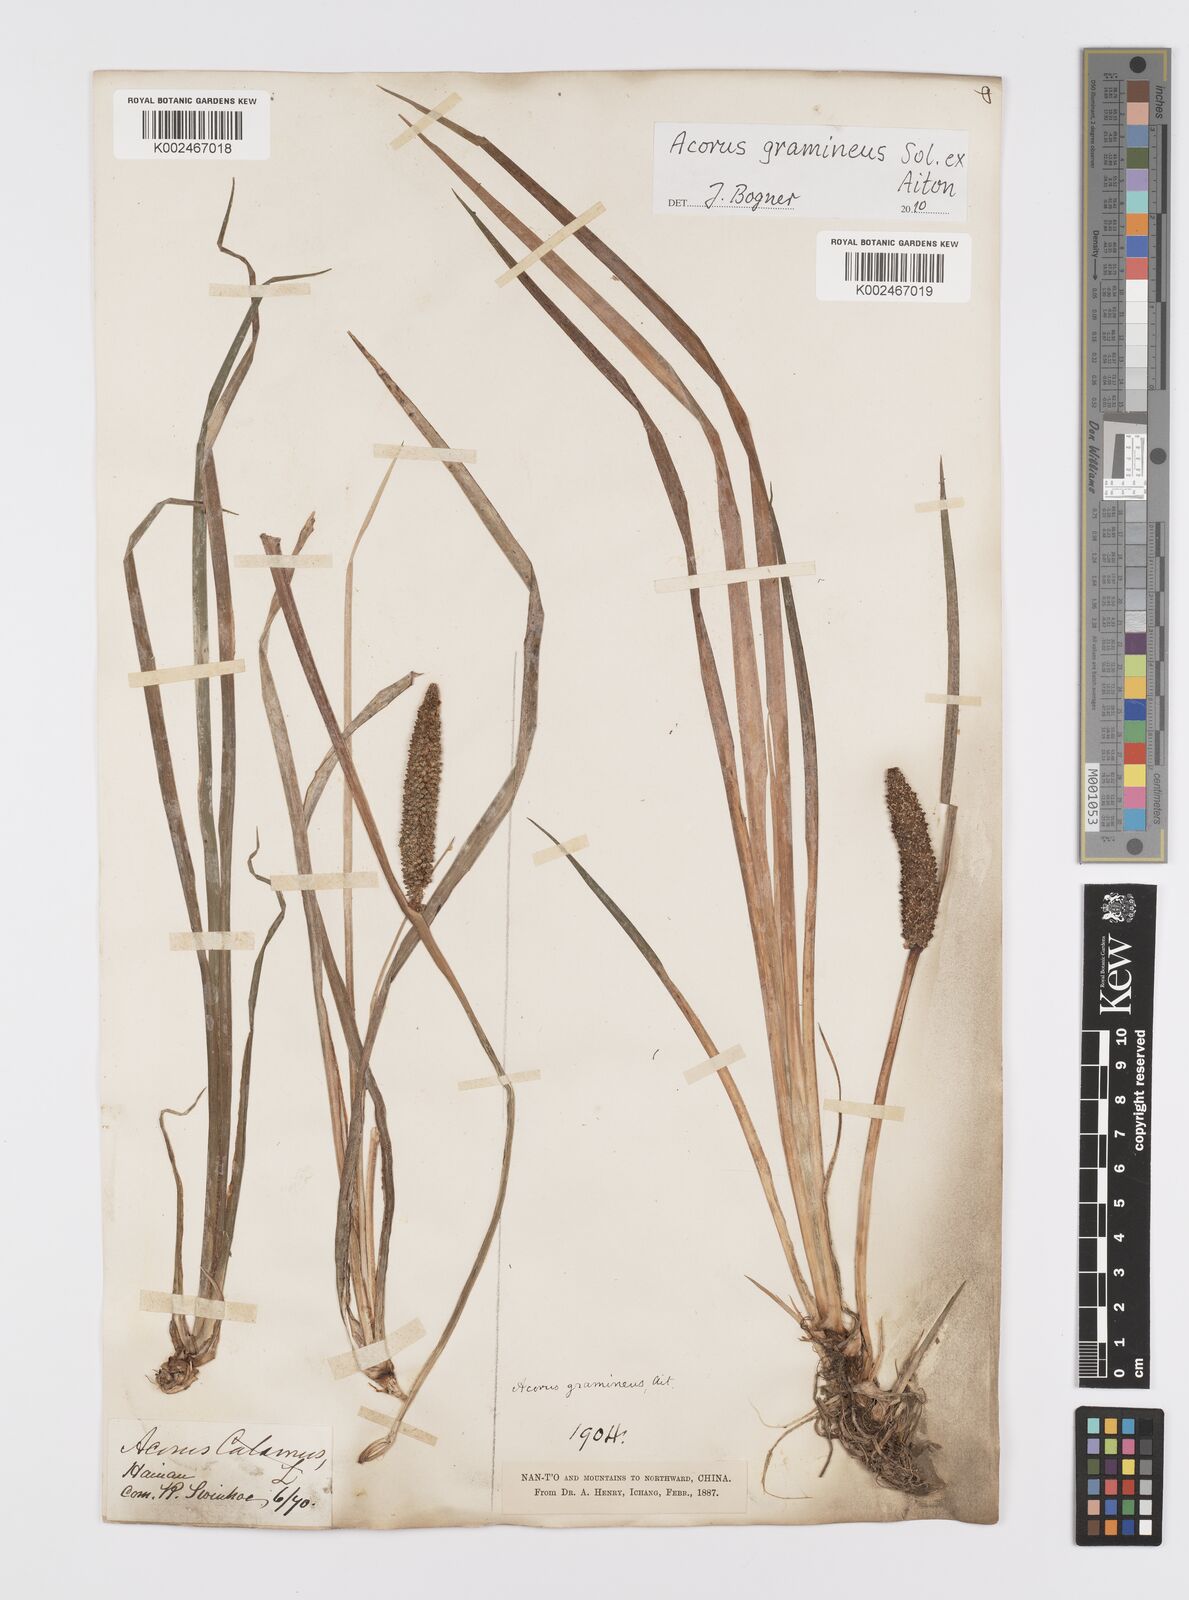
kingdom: Plantae
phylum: Tracheophyta
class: Liliopsida
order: Acorales
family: Acoraceae
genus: Acorus
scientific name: Acorus gramineus
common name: Slender sweet-flag
